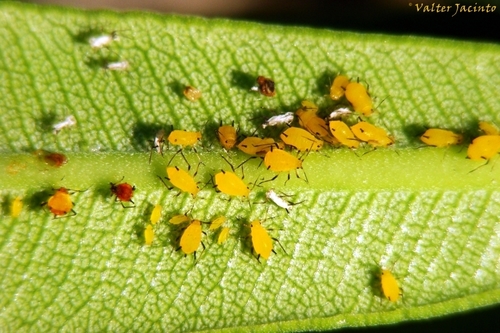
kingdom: Animalia
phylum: Arthropoda
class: Insecta
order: Hemiptera
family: Aphididae
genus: Aphis
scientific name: Aphis nerii
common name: Oleander aphid
